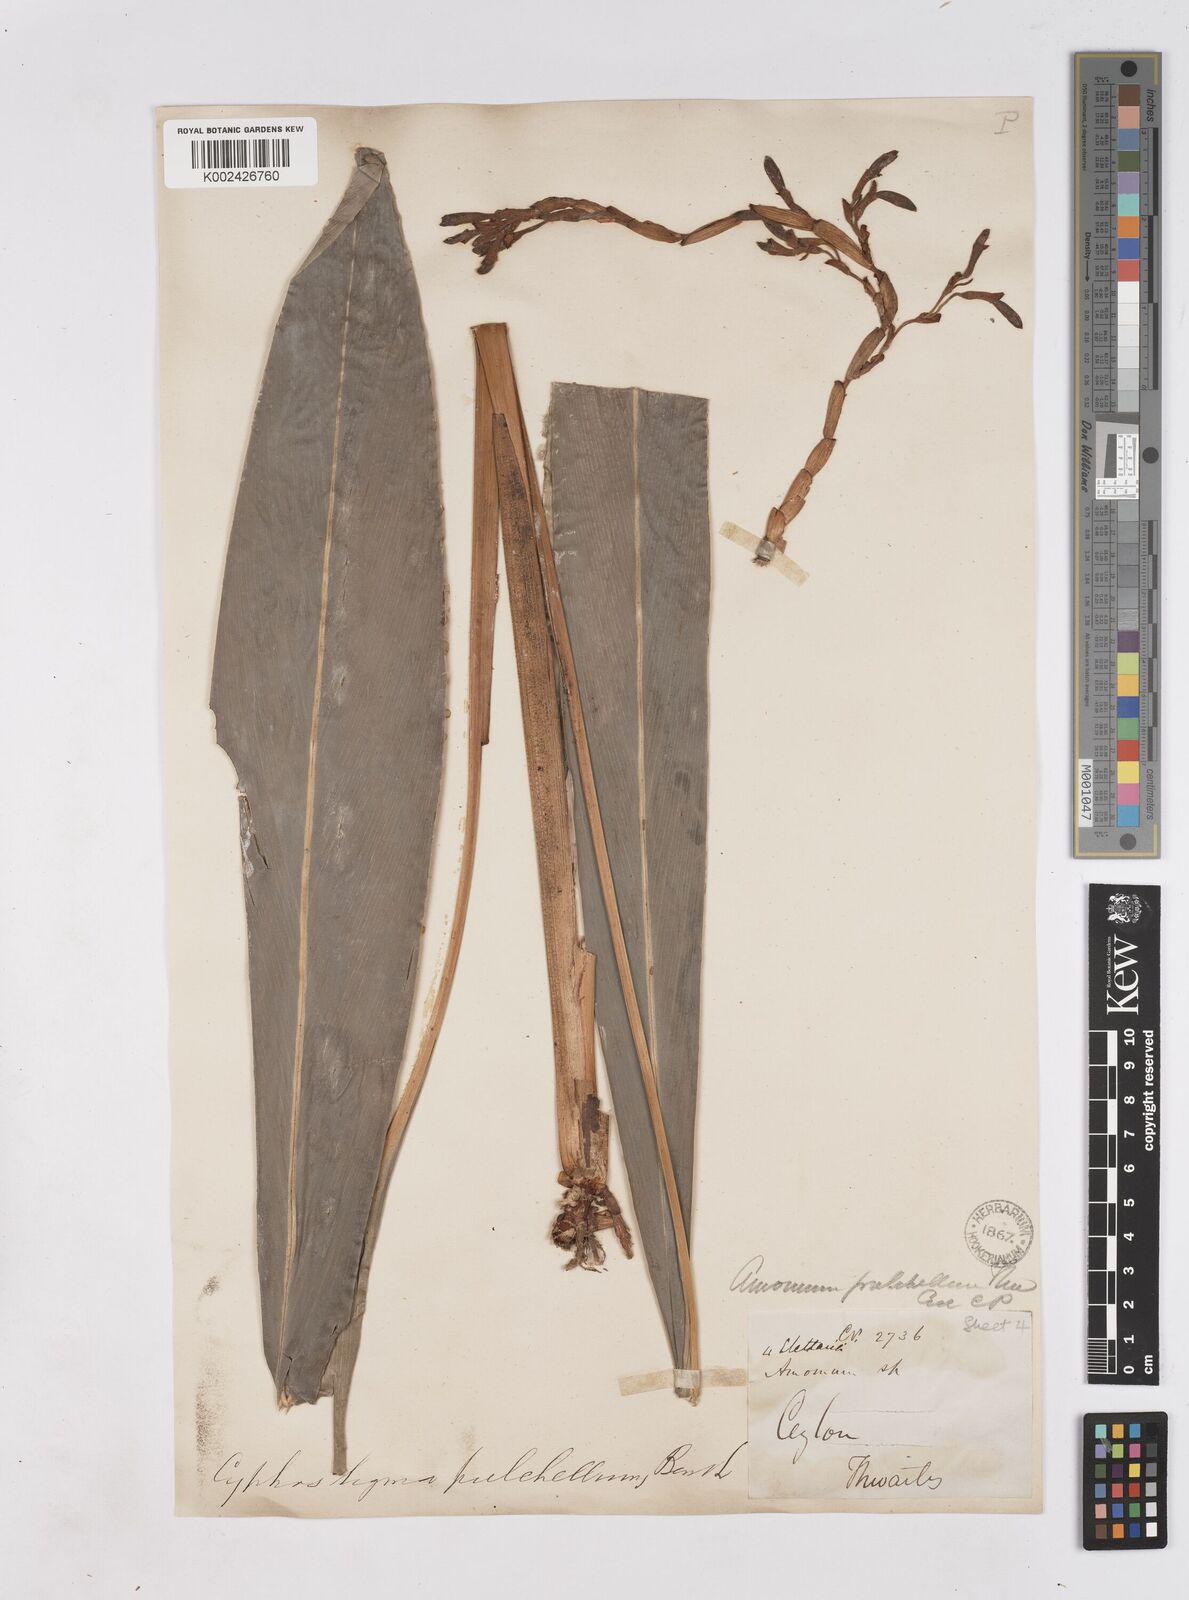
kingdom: Plantae
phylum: Tracheophyta
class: Liliopsida
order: Zingiberales
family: Zingiberaceae
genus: Cyphostigma
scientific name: Cyphostigma pulchellum
